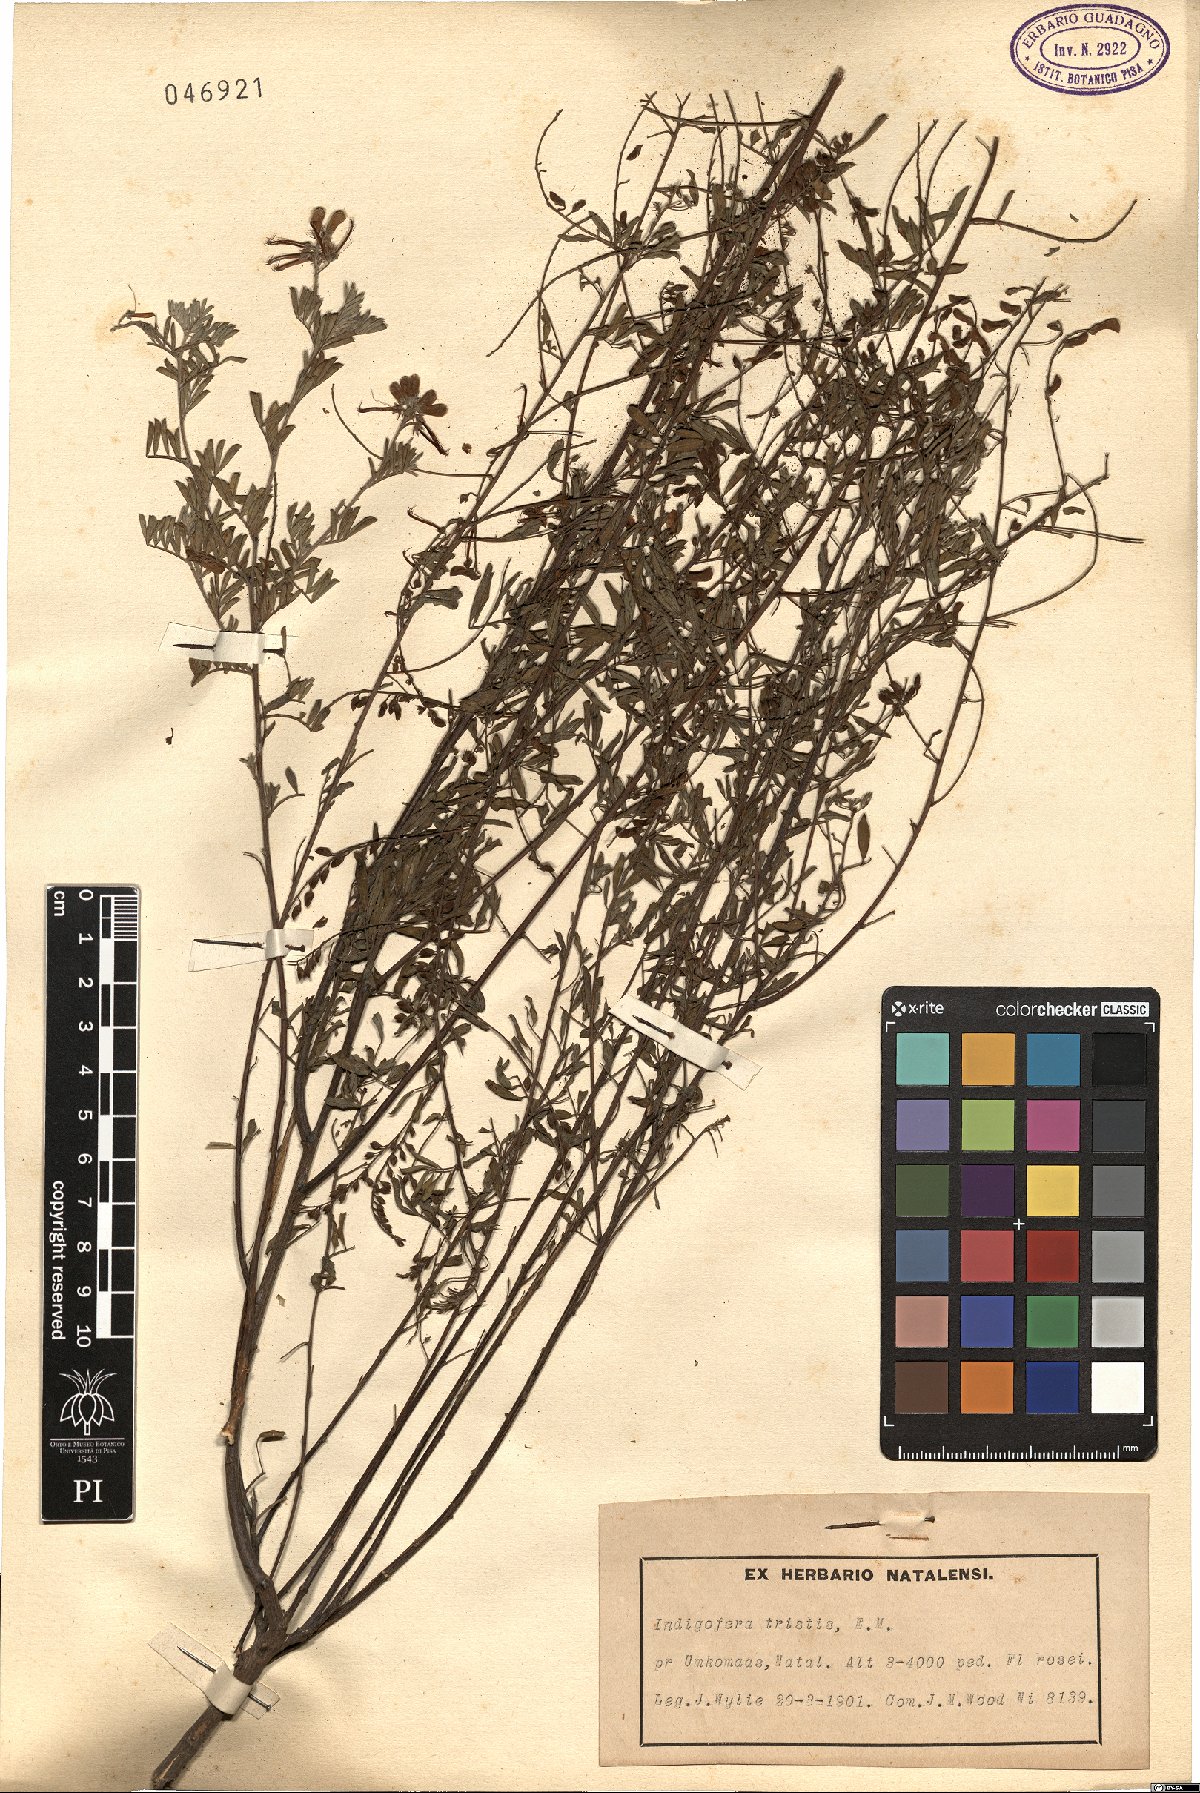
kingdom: Plantae
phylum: Tracheophyta
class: Magnoliopsida
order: Fabales
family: Fabaceae
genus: Indigofera
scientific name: Indigofera tristis
